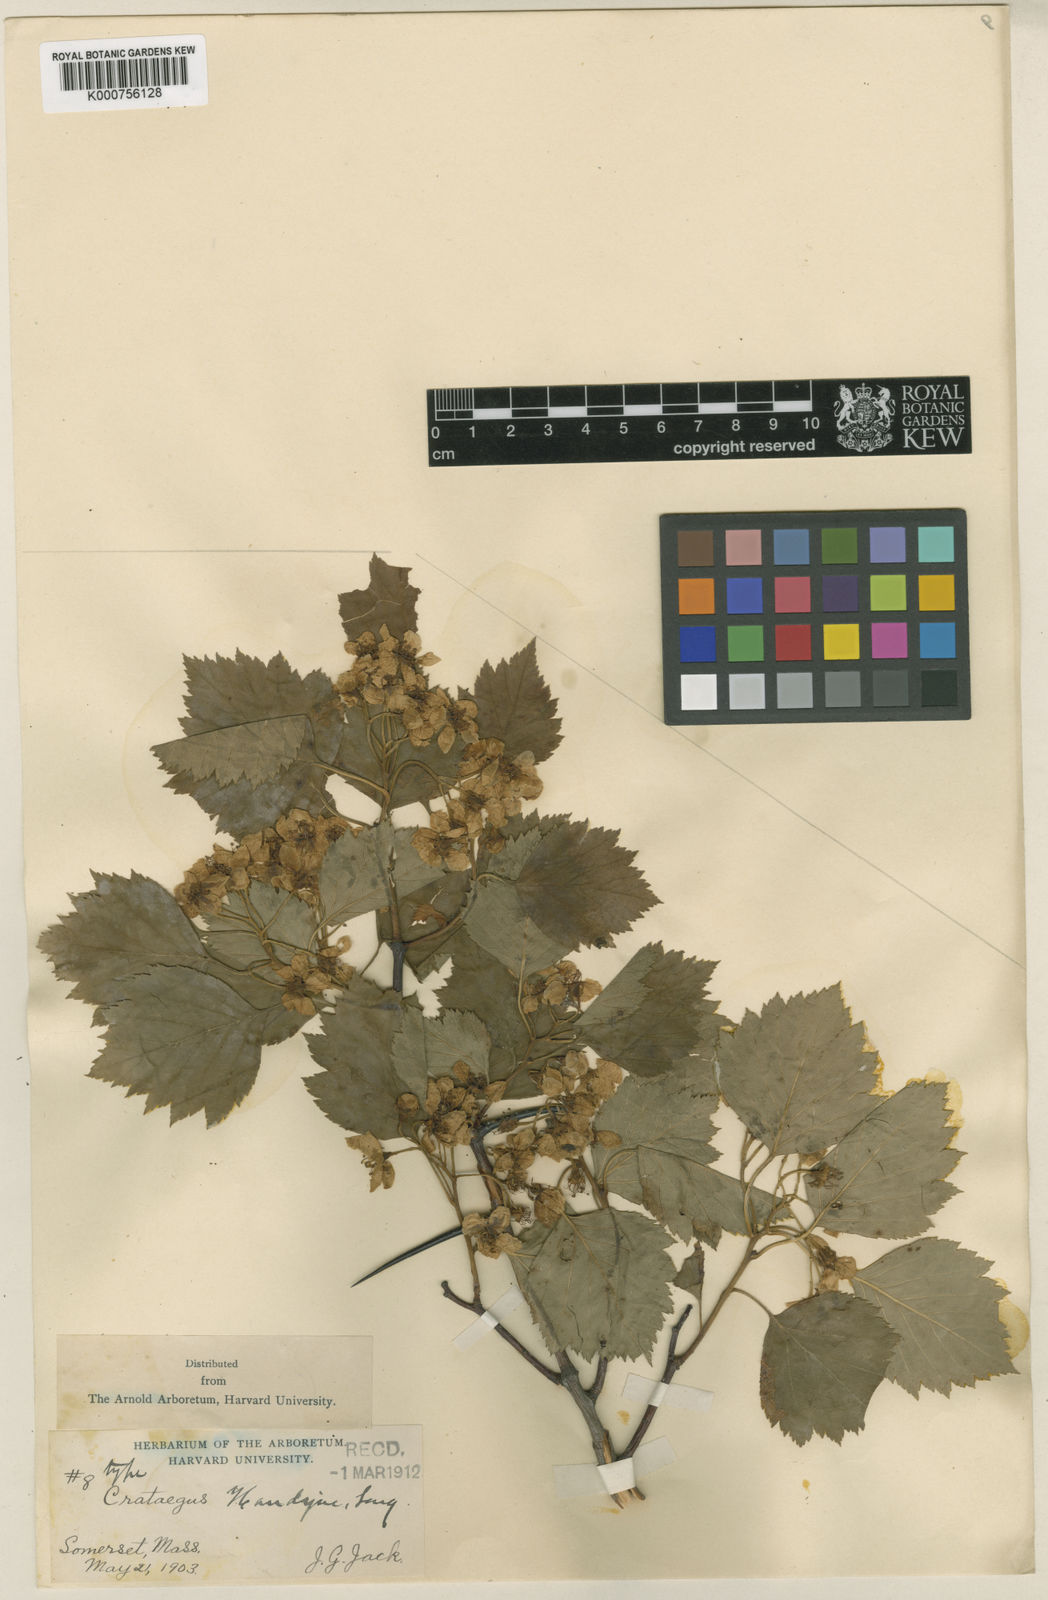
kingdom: Plantae
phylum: Tracheophyta
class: Magnoliopsida
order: Rosales
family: Rosaceae
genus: Crataegus
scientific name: Crataegus handyae
